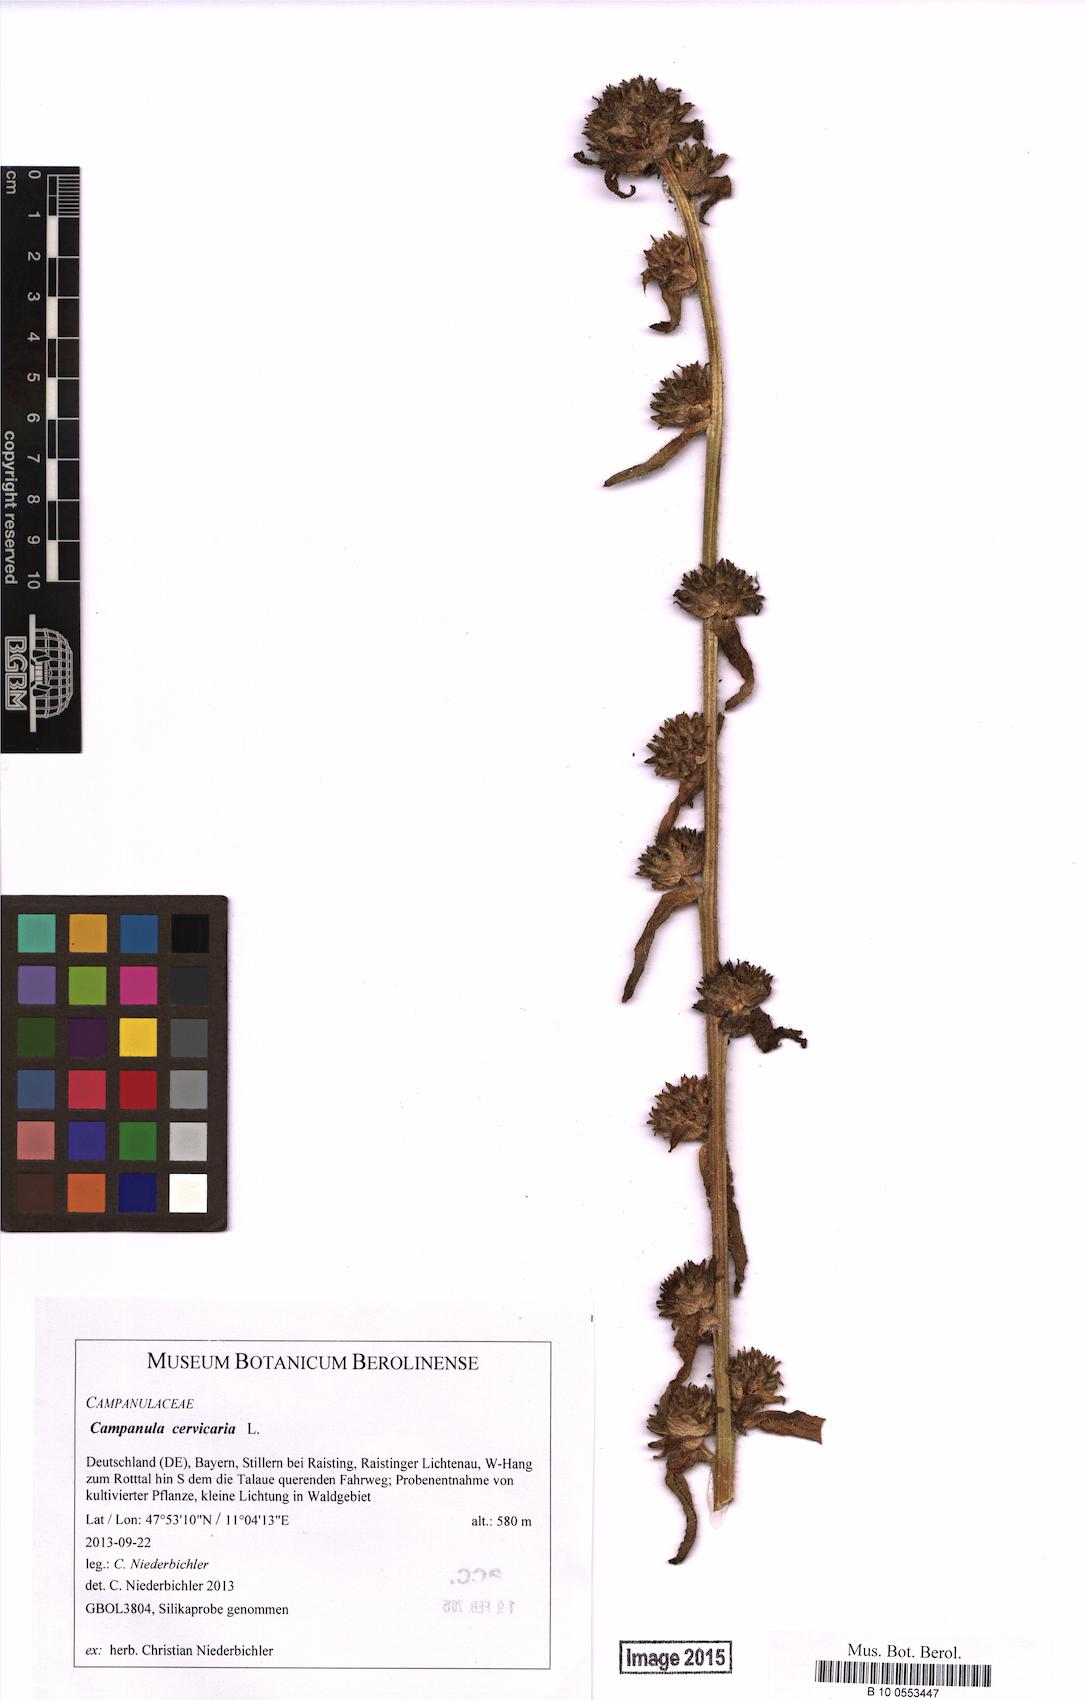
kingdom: Plantae
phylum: Tracheophyta
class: Magnoliopsida
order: Asterales
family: Campanulaceae
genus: Campanula
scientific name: Campanula cervicaria
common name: Bristly bellflower
